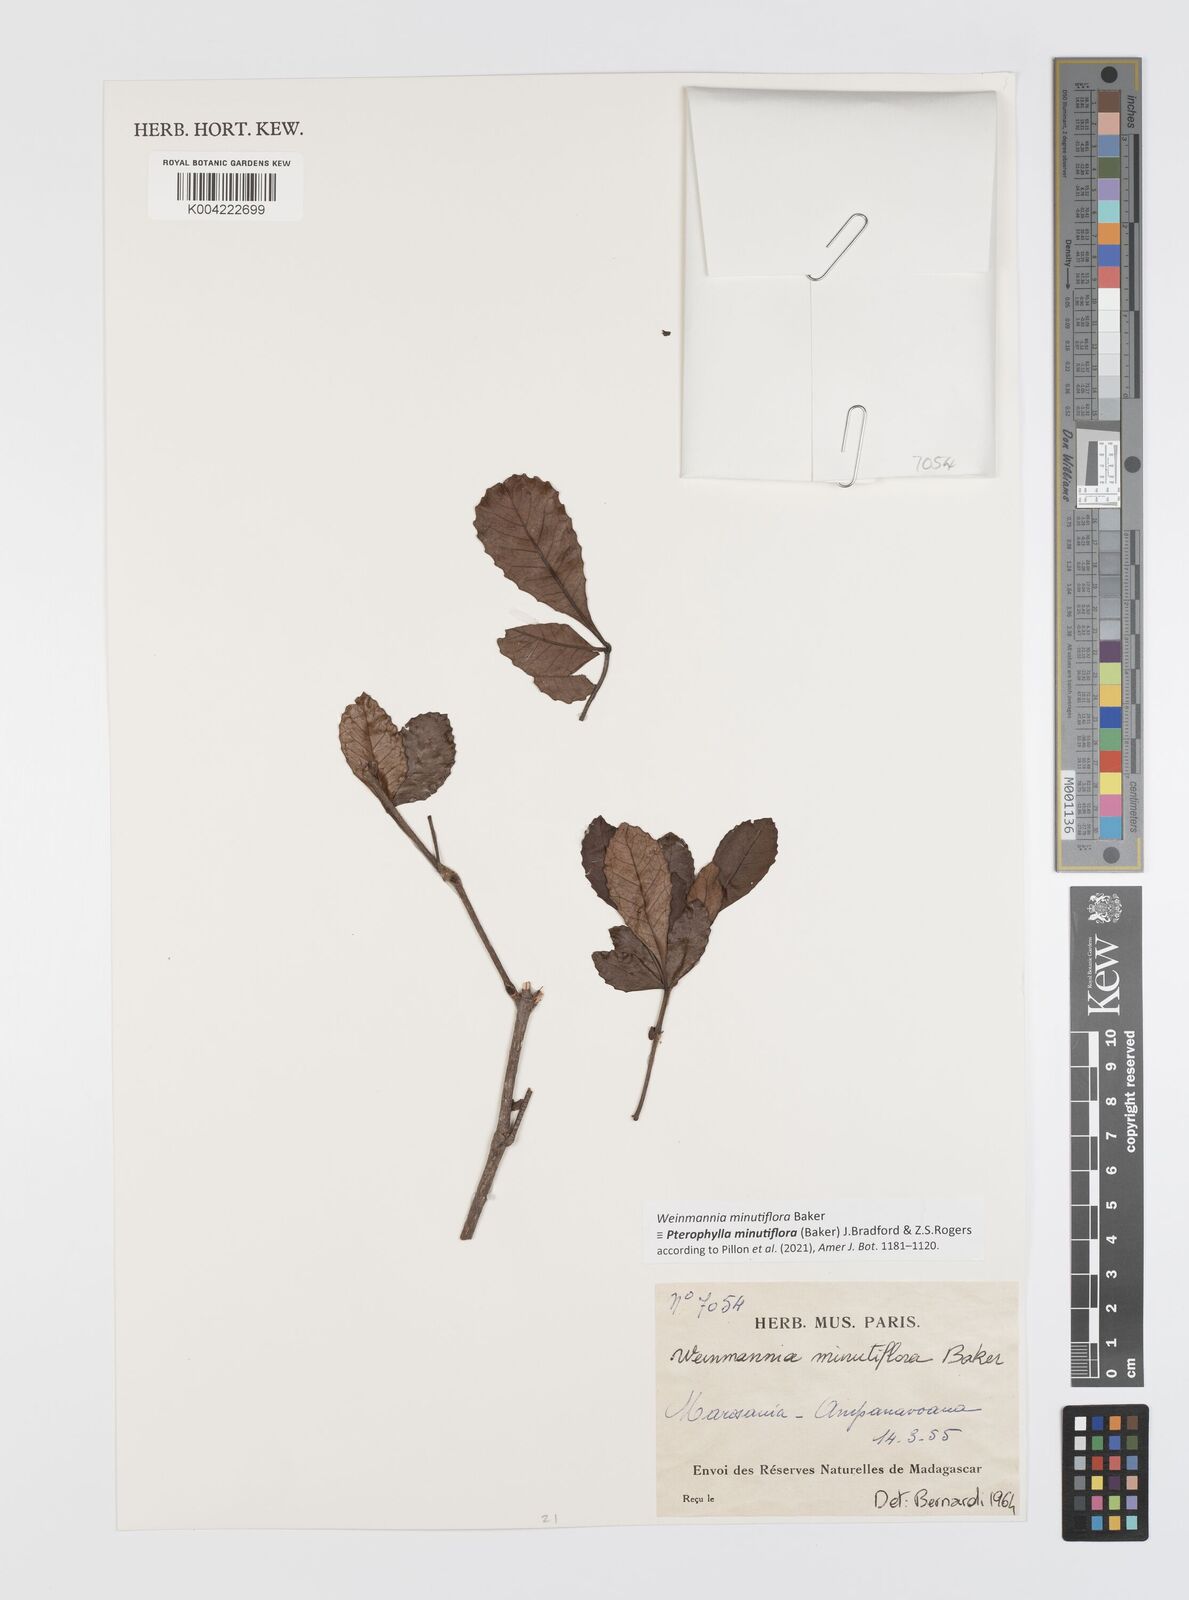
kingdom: Plantae
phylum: Tracheophyta
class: Magnoliopsida
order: Oxalidales
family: Cunoniaceae
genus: Pterophylla
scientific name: Pterophylla
